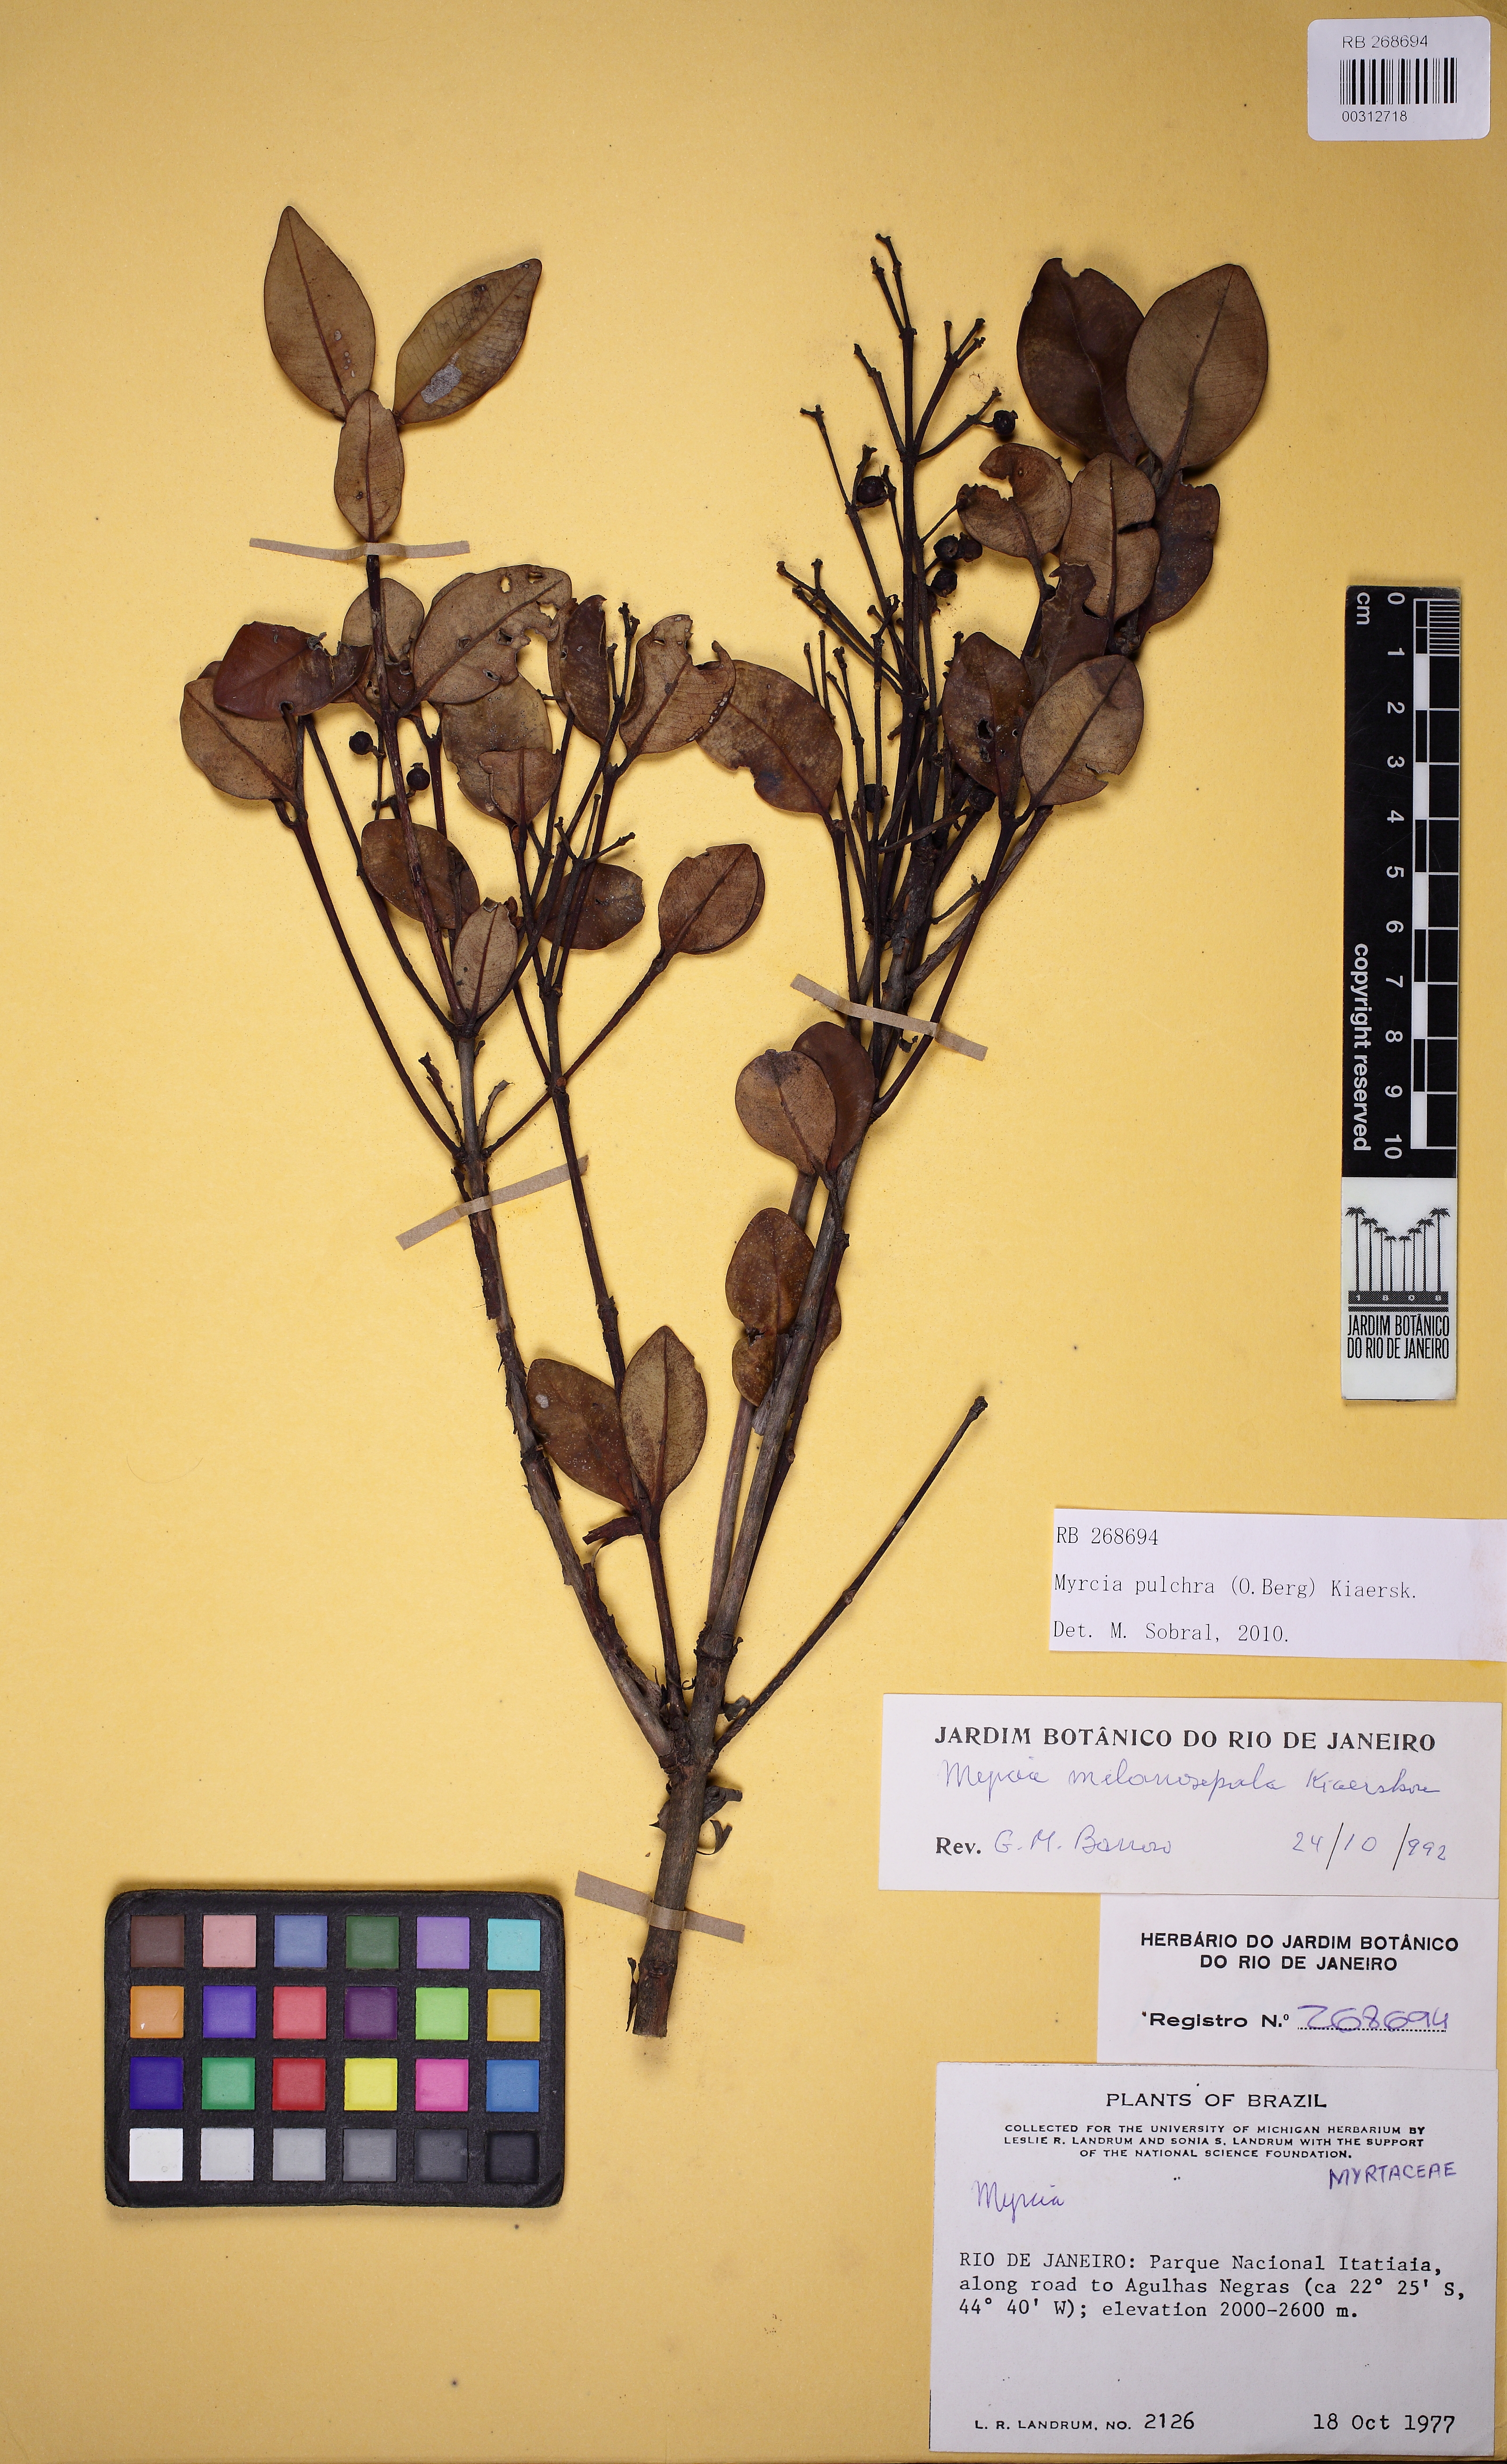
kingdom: Plantae
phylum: Tracheophyta
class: Magnoliopsida
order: Myrtales
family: Myrtaceae
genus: Myrcia
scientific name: Myrcia pulchra
